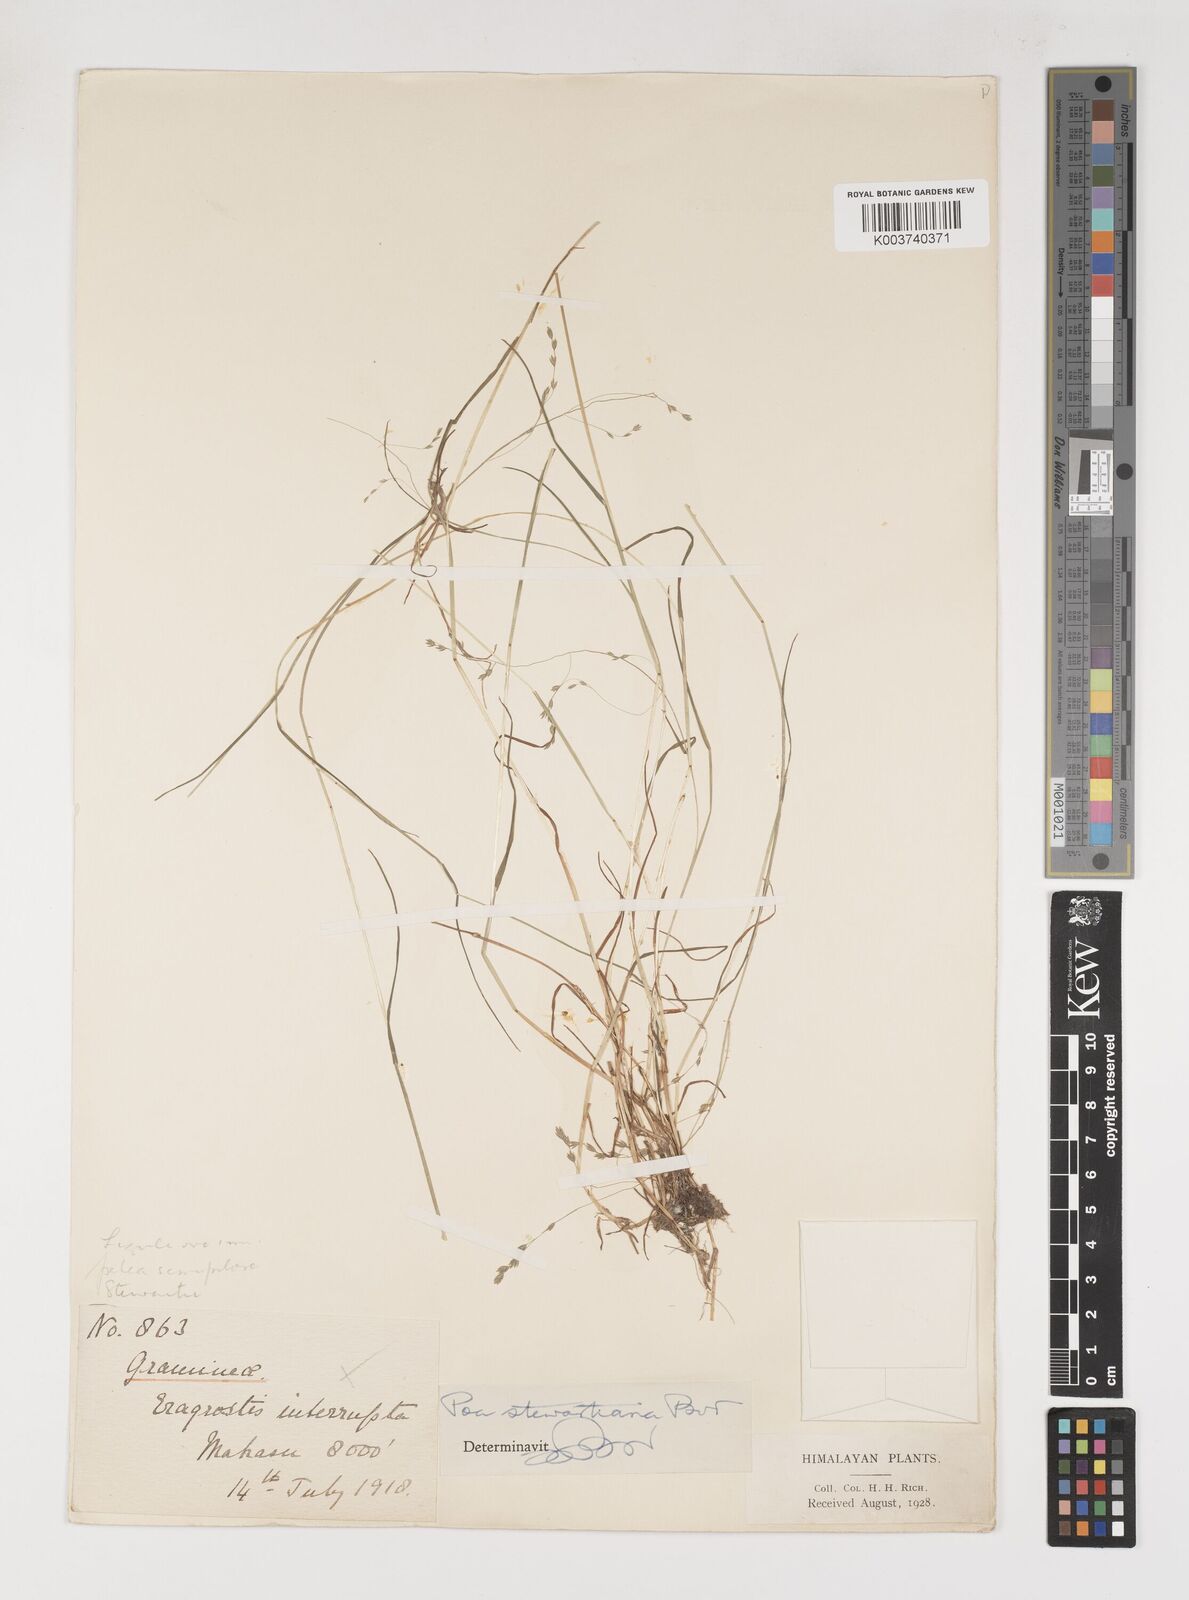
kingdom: Plantae
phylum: Tracheophyta
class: Liliopsida
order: Poales
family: Poaceae
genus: Poa
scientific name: Poa stewartiana
